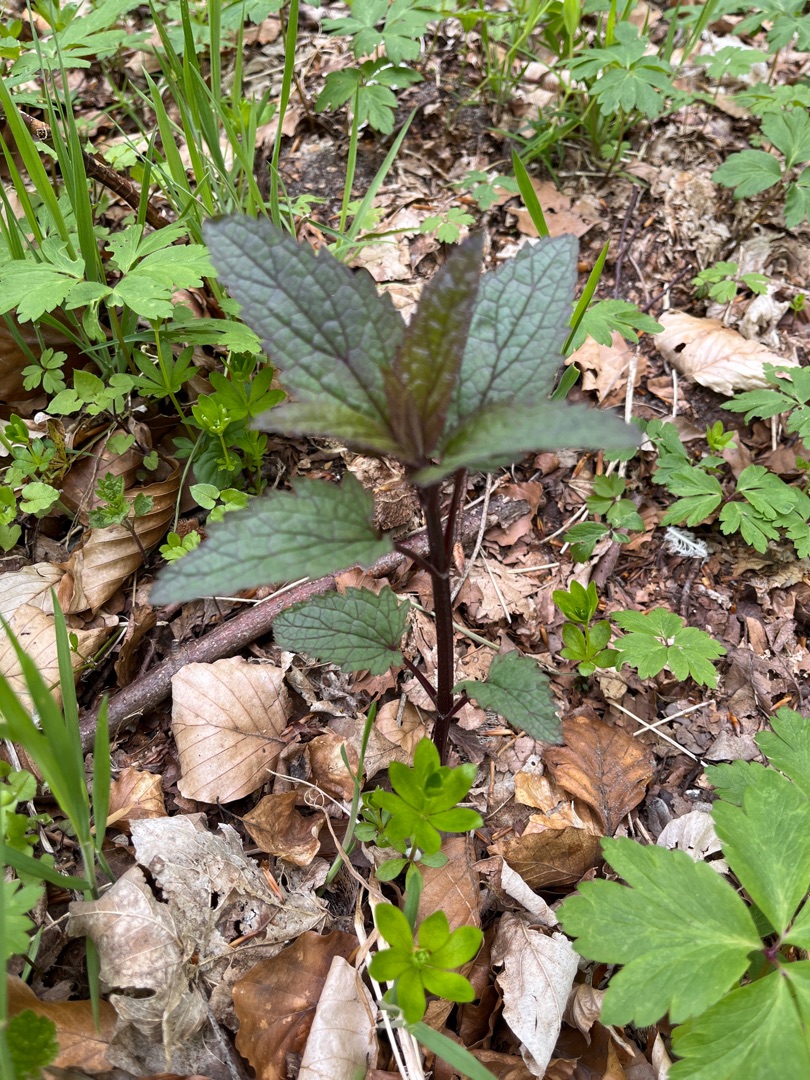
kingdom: Plantae
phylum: Tracheophyta
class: Magnoliopsida
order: Lamiales
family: Scrophulariaceae
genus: Scrophularia
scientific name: Scrophularia nodosa
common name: Knoldet brunrod
